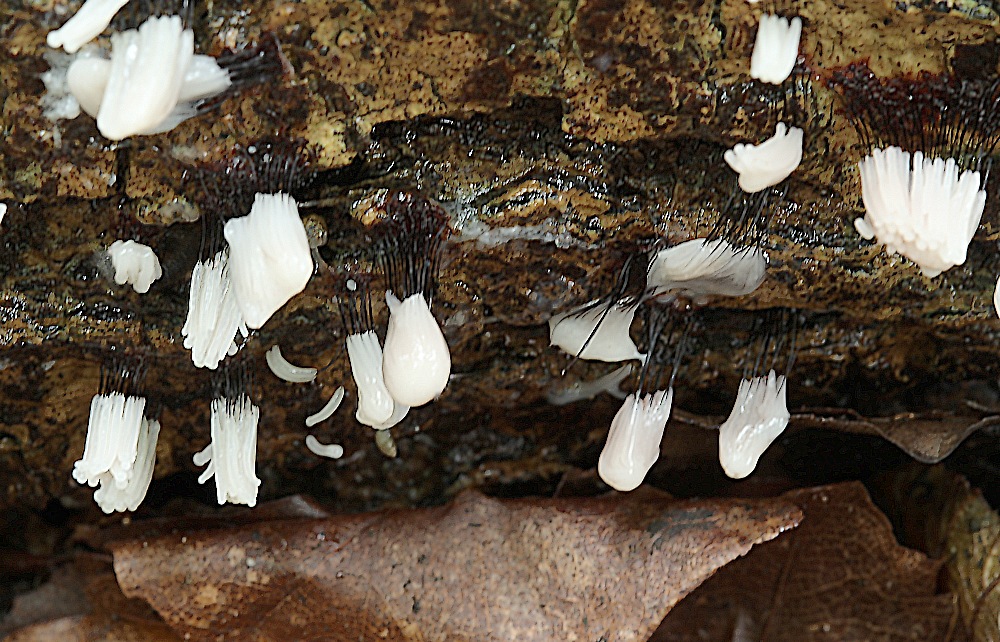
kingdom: Protozoa
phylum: Mycetozoa
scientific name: Mycetozoa
